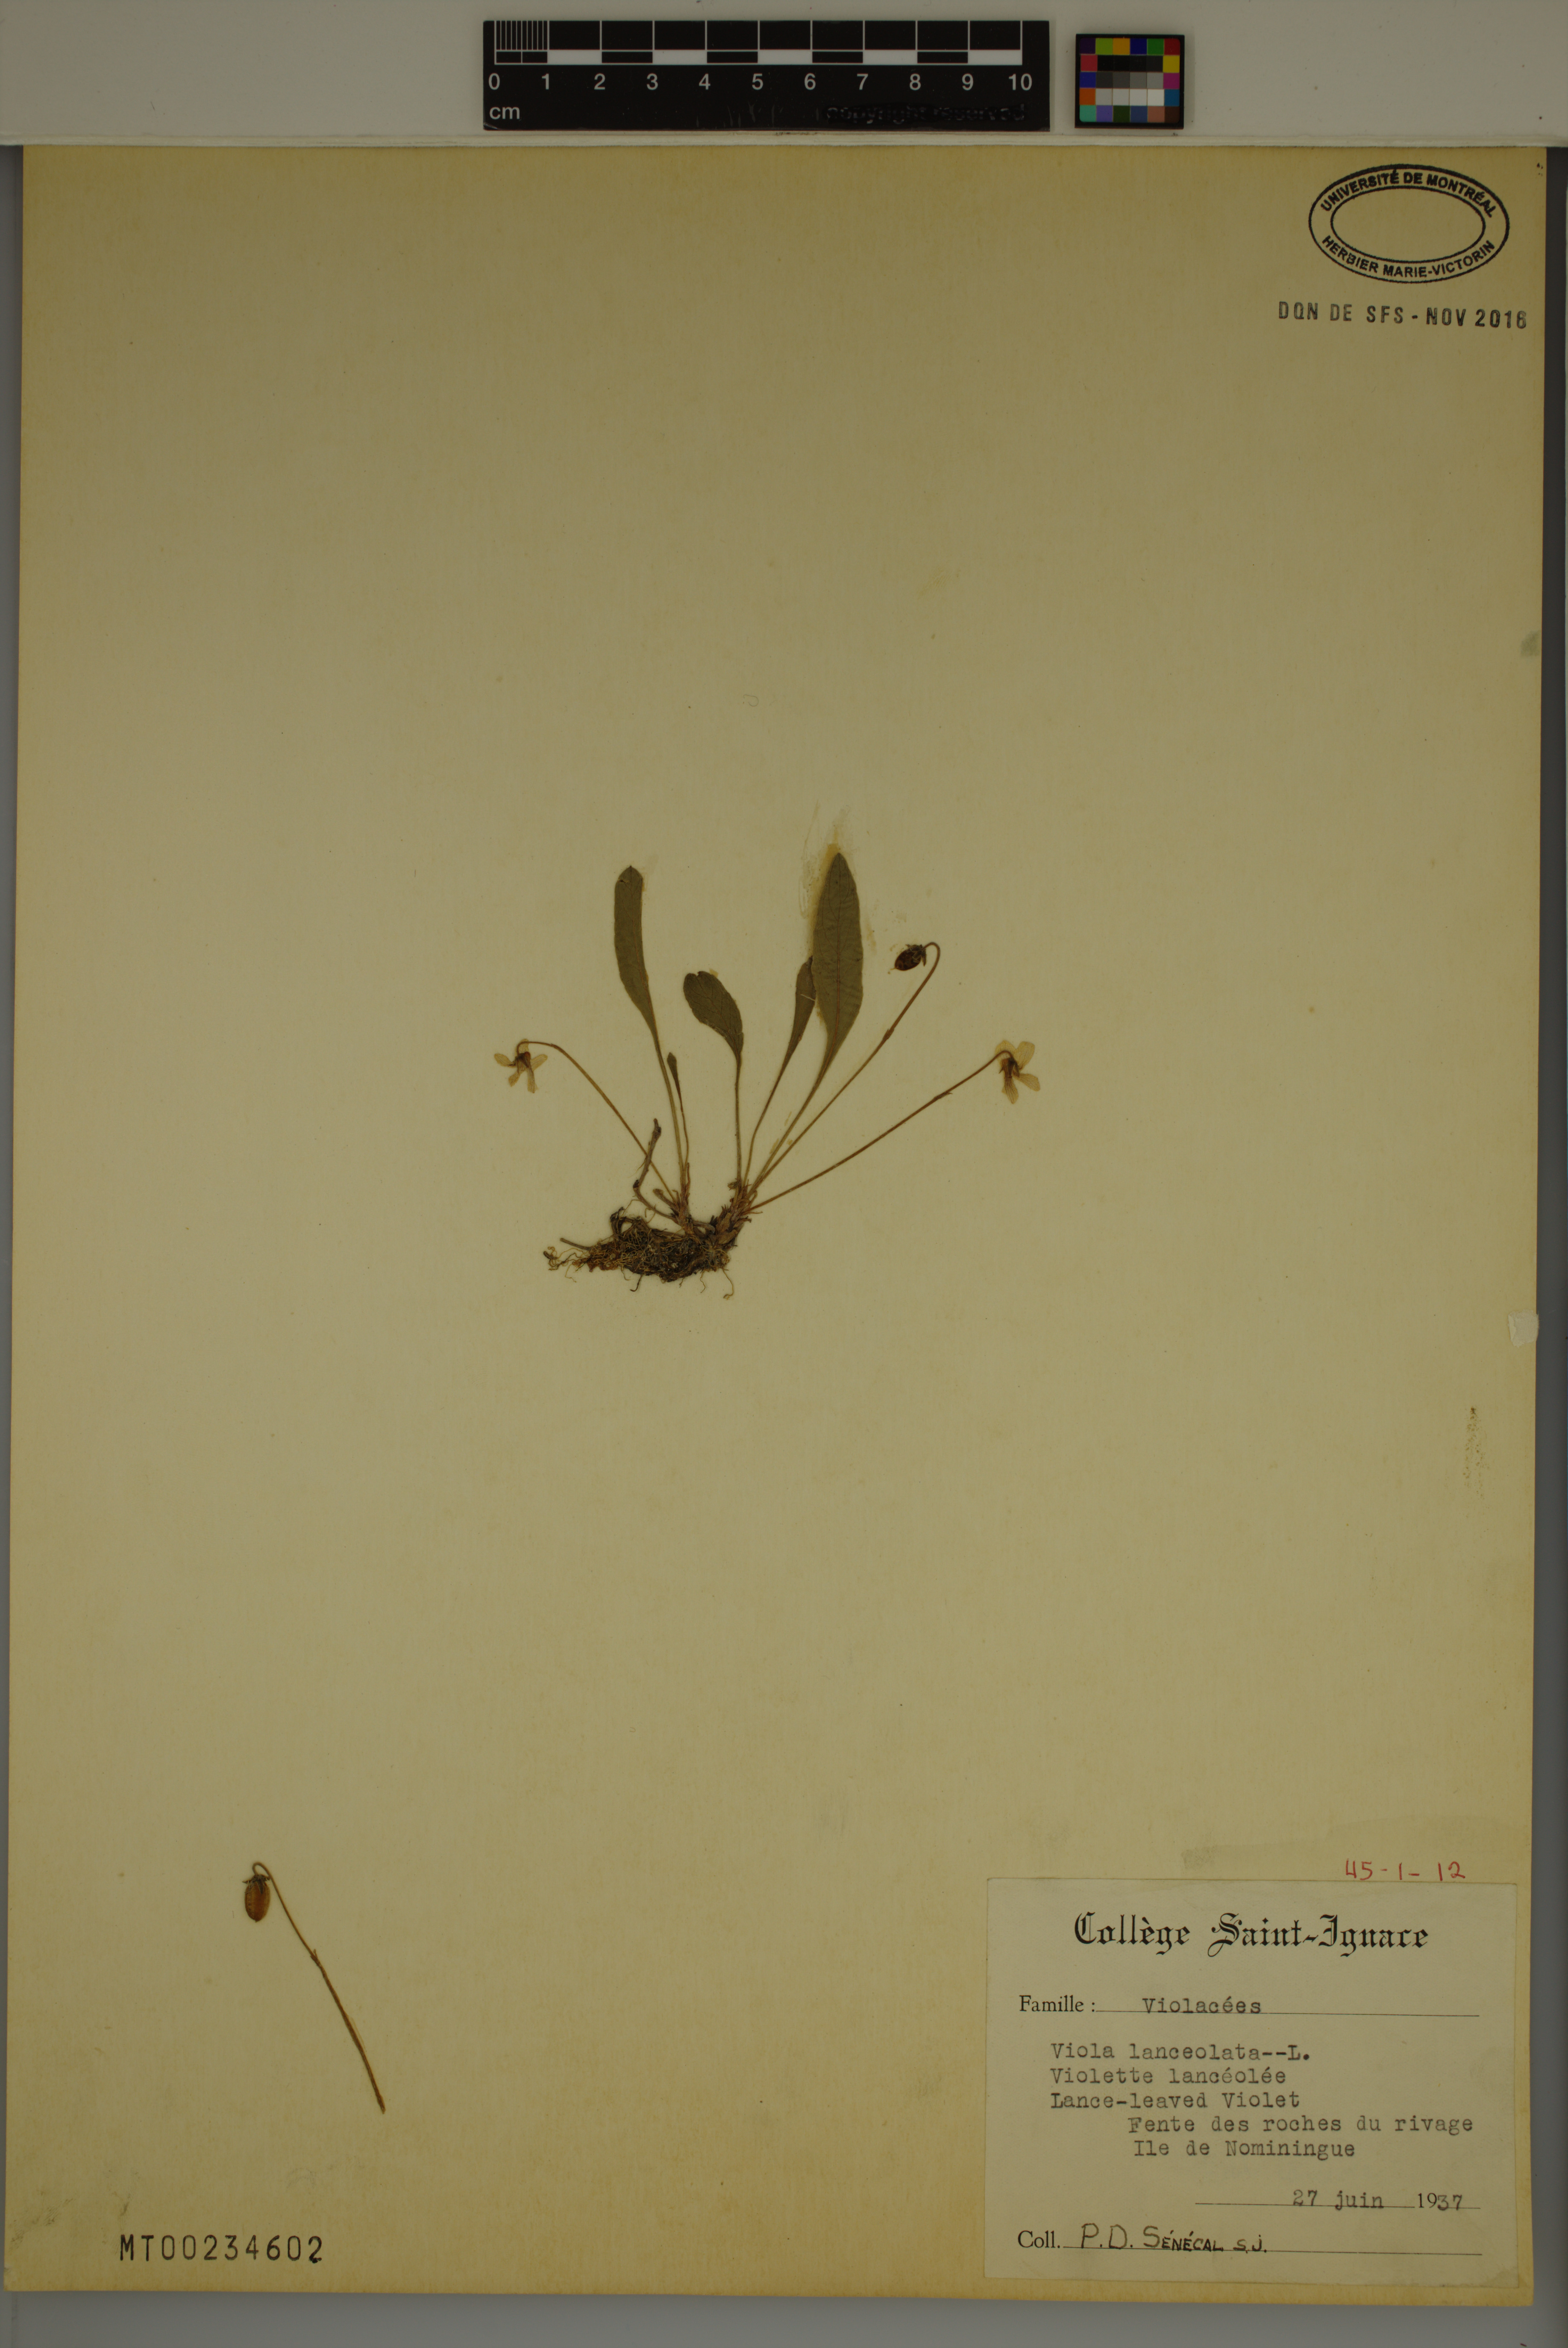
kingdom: Plantae
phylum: Tracheophyta
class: Magnoliopsida
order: Malpighiales
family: Violaceae
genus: Viola
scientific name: Viola lanceolata
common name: Bog white violet
